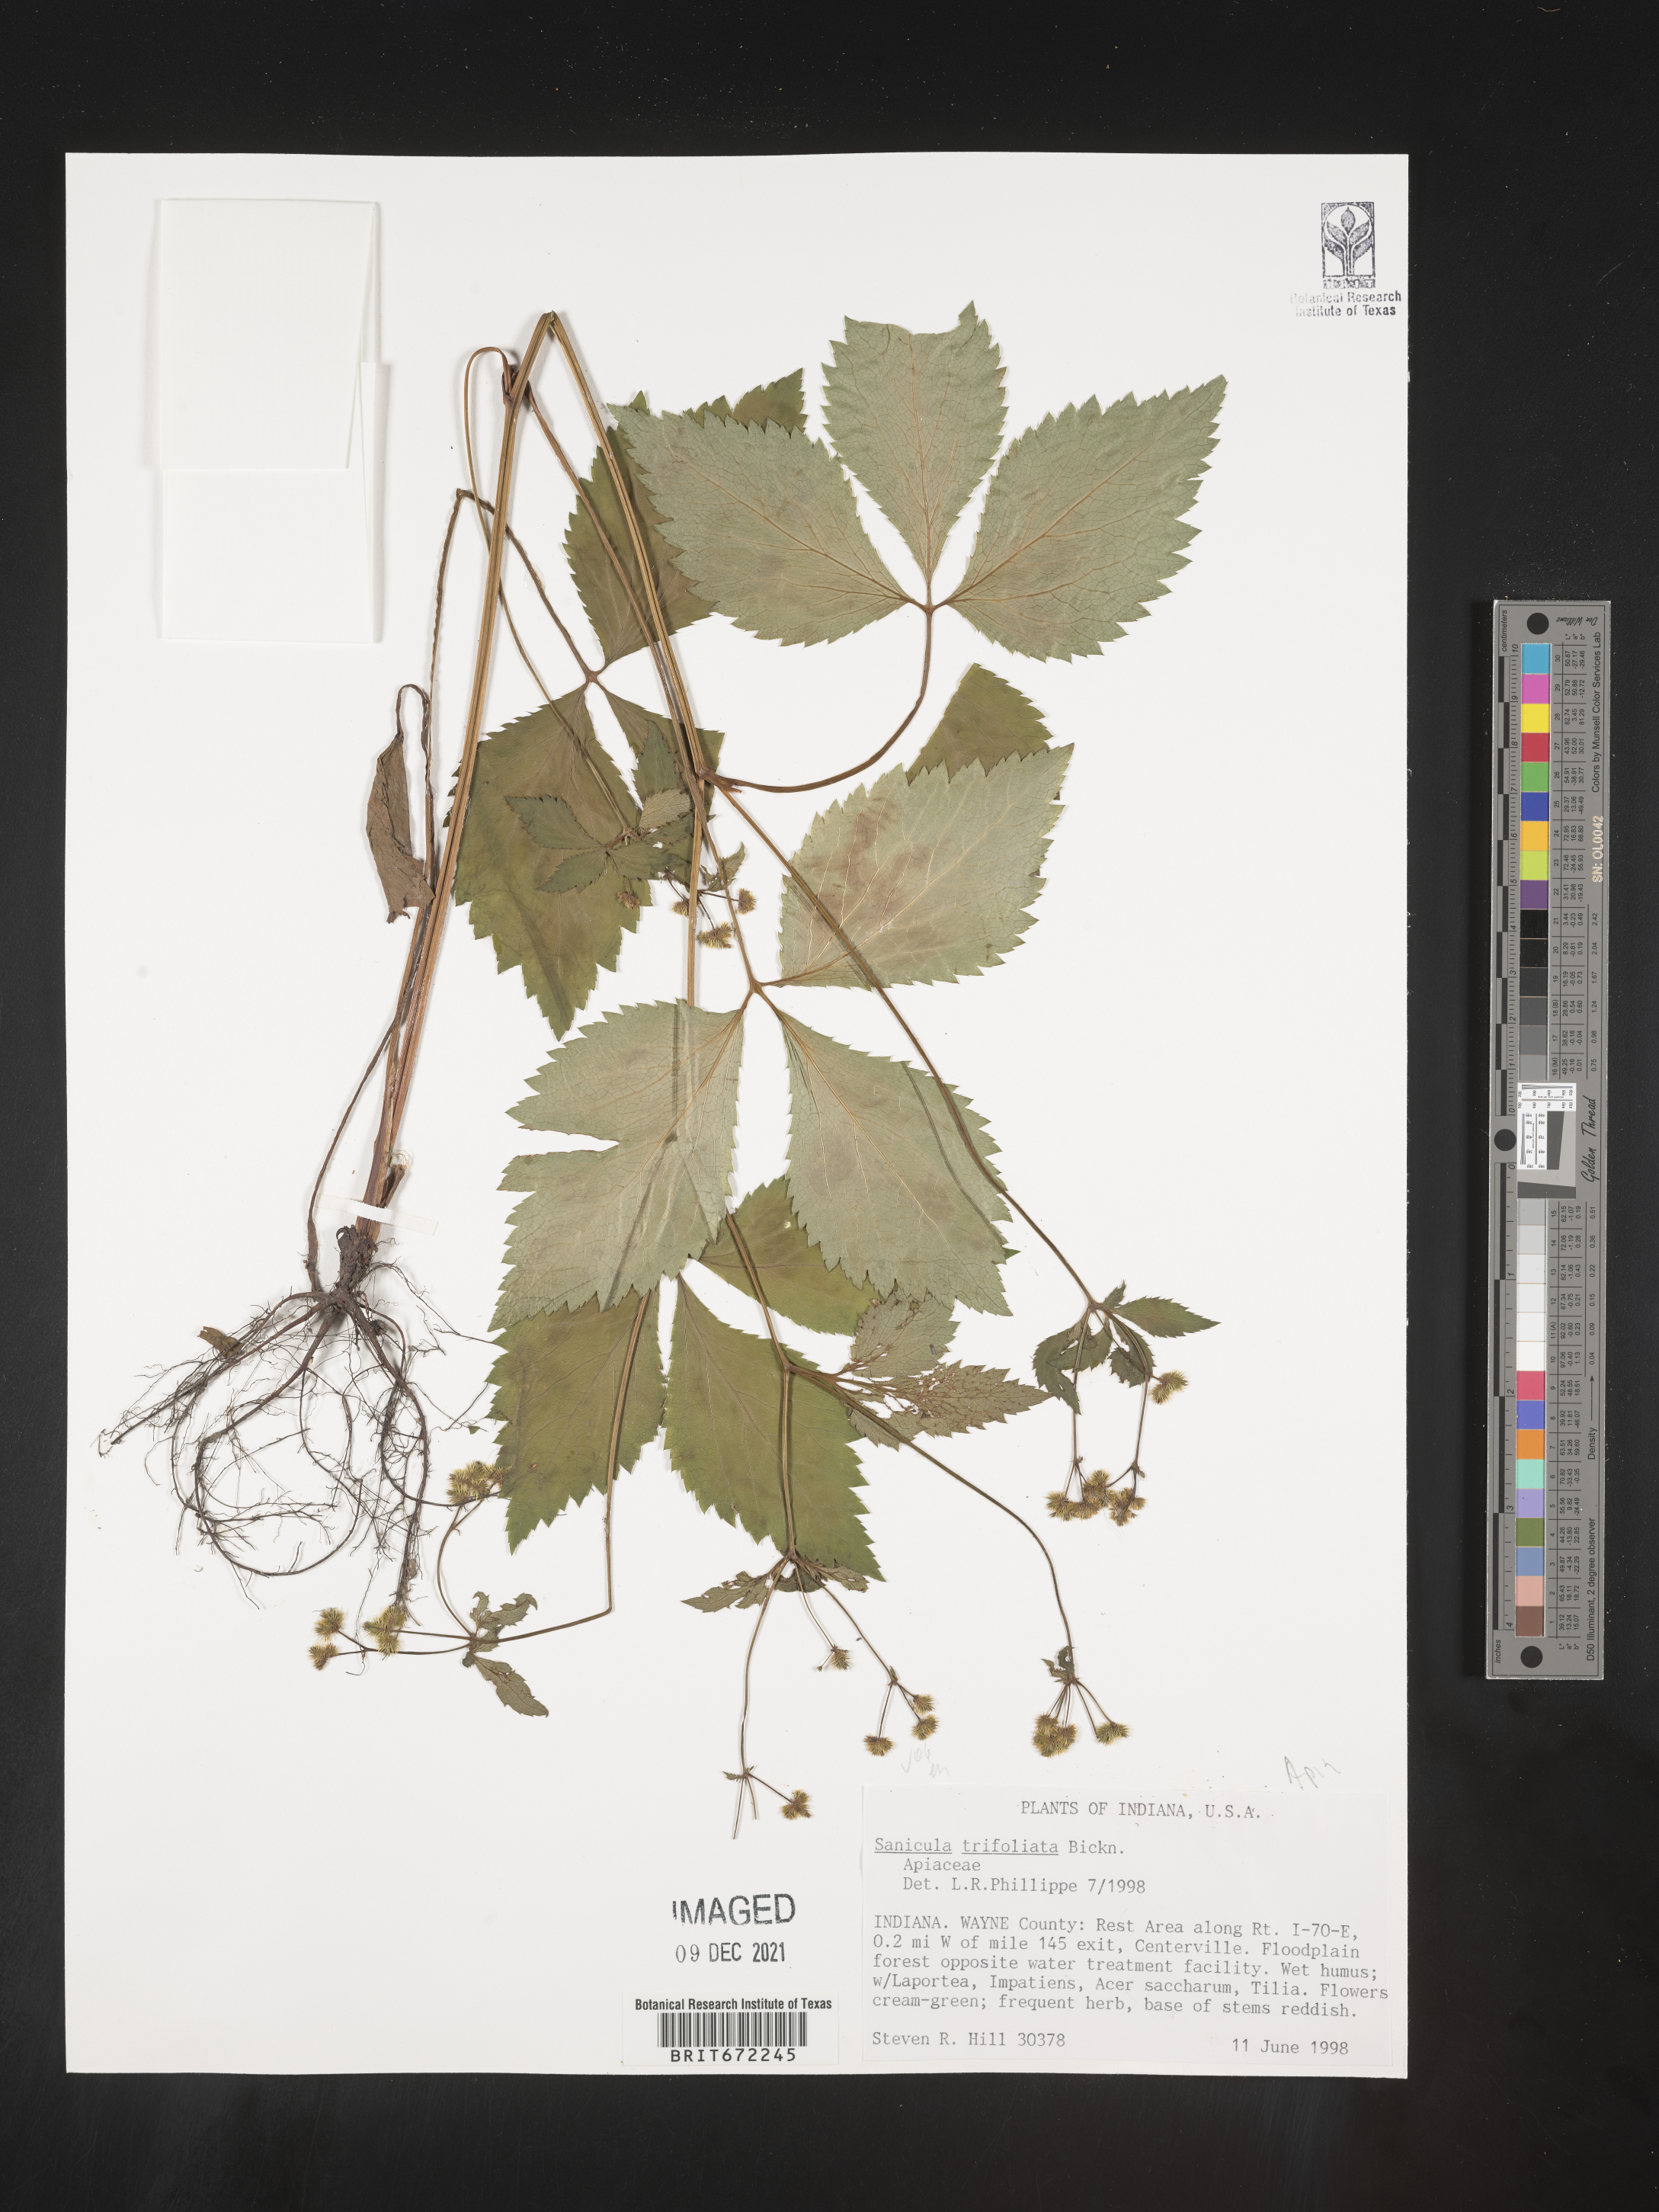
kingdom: Plantae
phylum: Tracheophyta
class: Magnoliopsida
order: Apiales
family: Apiaceae
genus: Sanicula
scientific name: Sanicula
